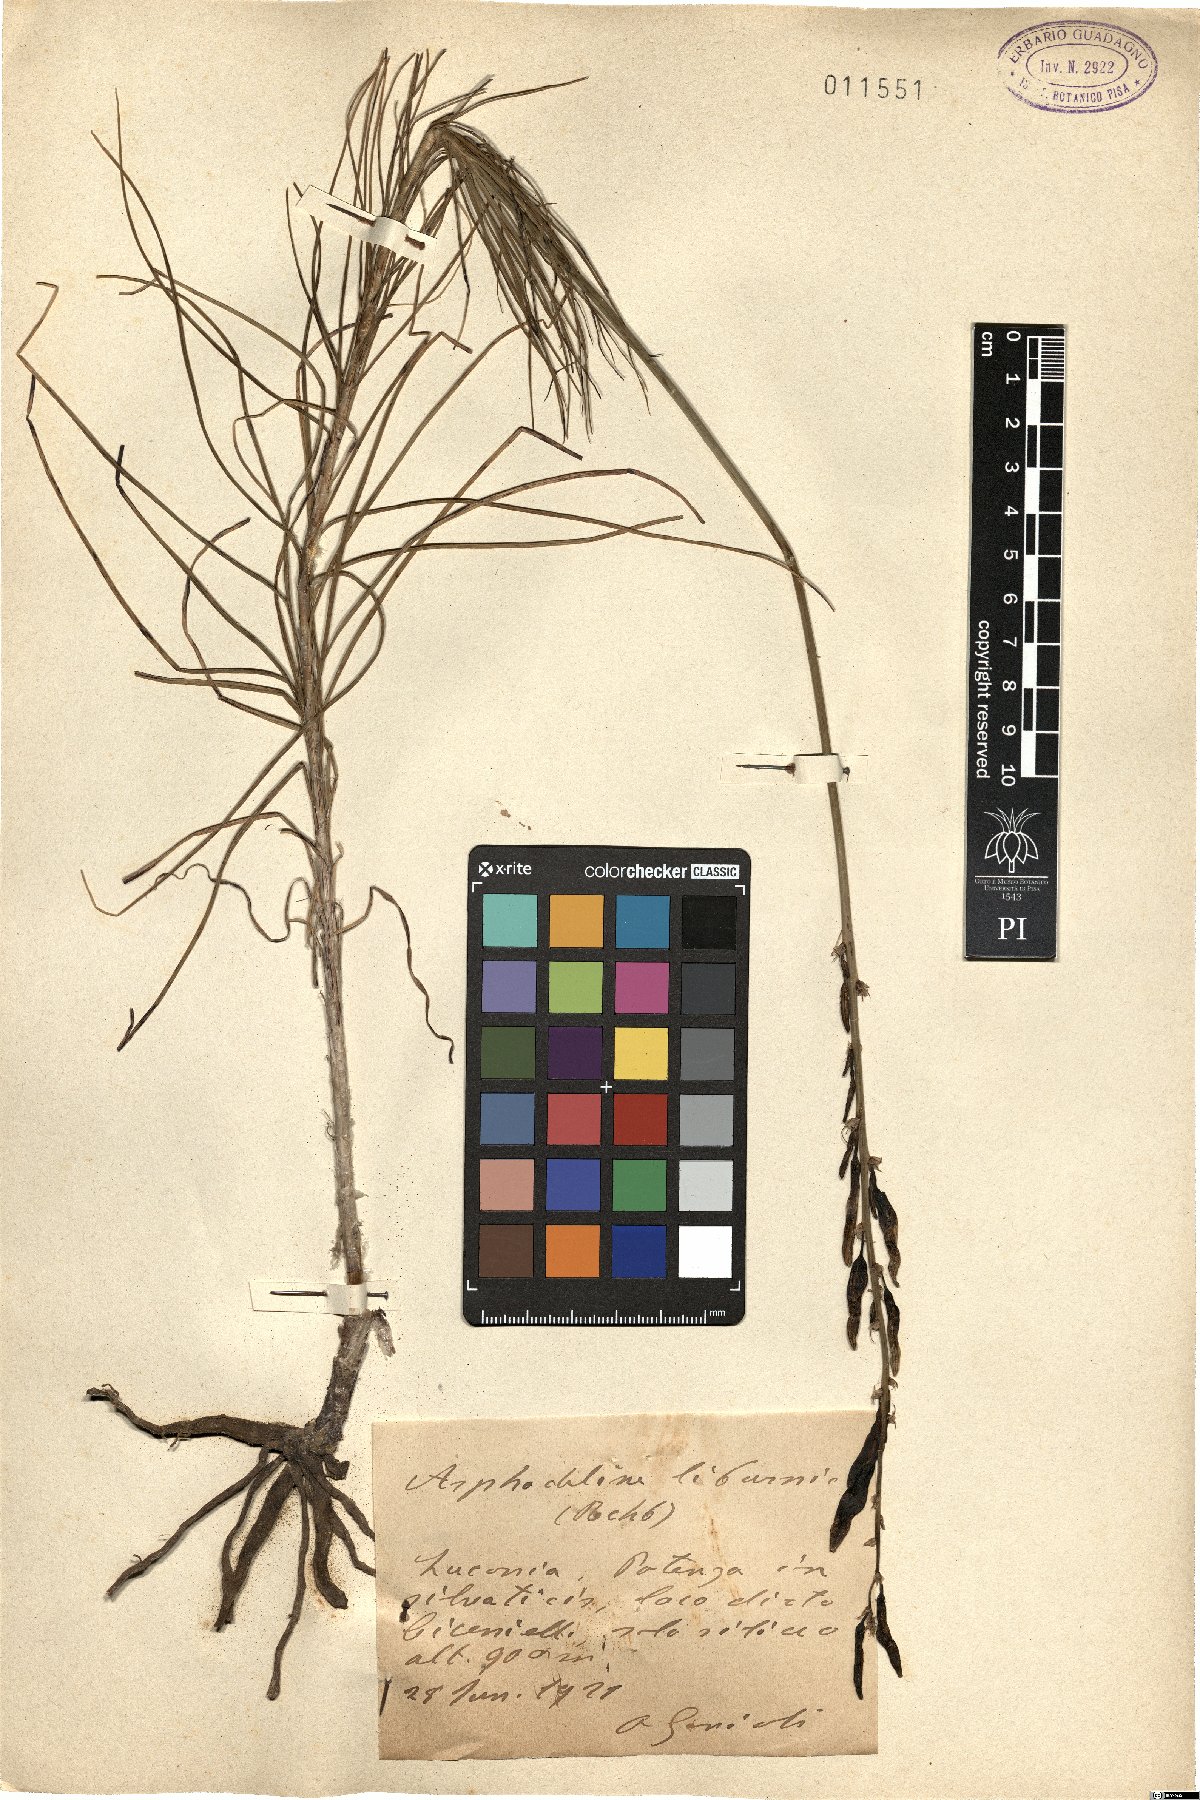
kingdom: Plantae
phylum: Tracheophyta
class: Liliopsida
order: Asparagales
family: Asphodelaceae
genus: Asphodeline
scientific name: Asphodeline liburnica
